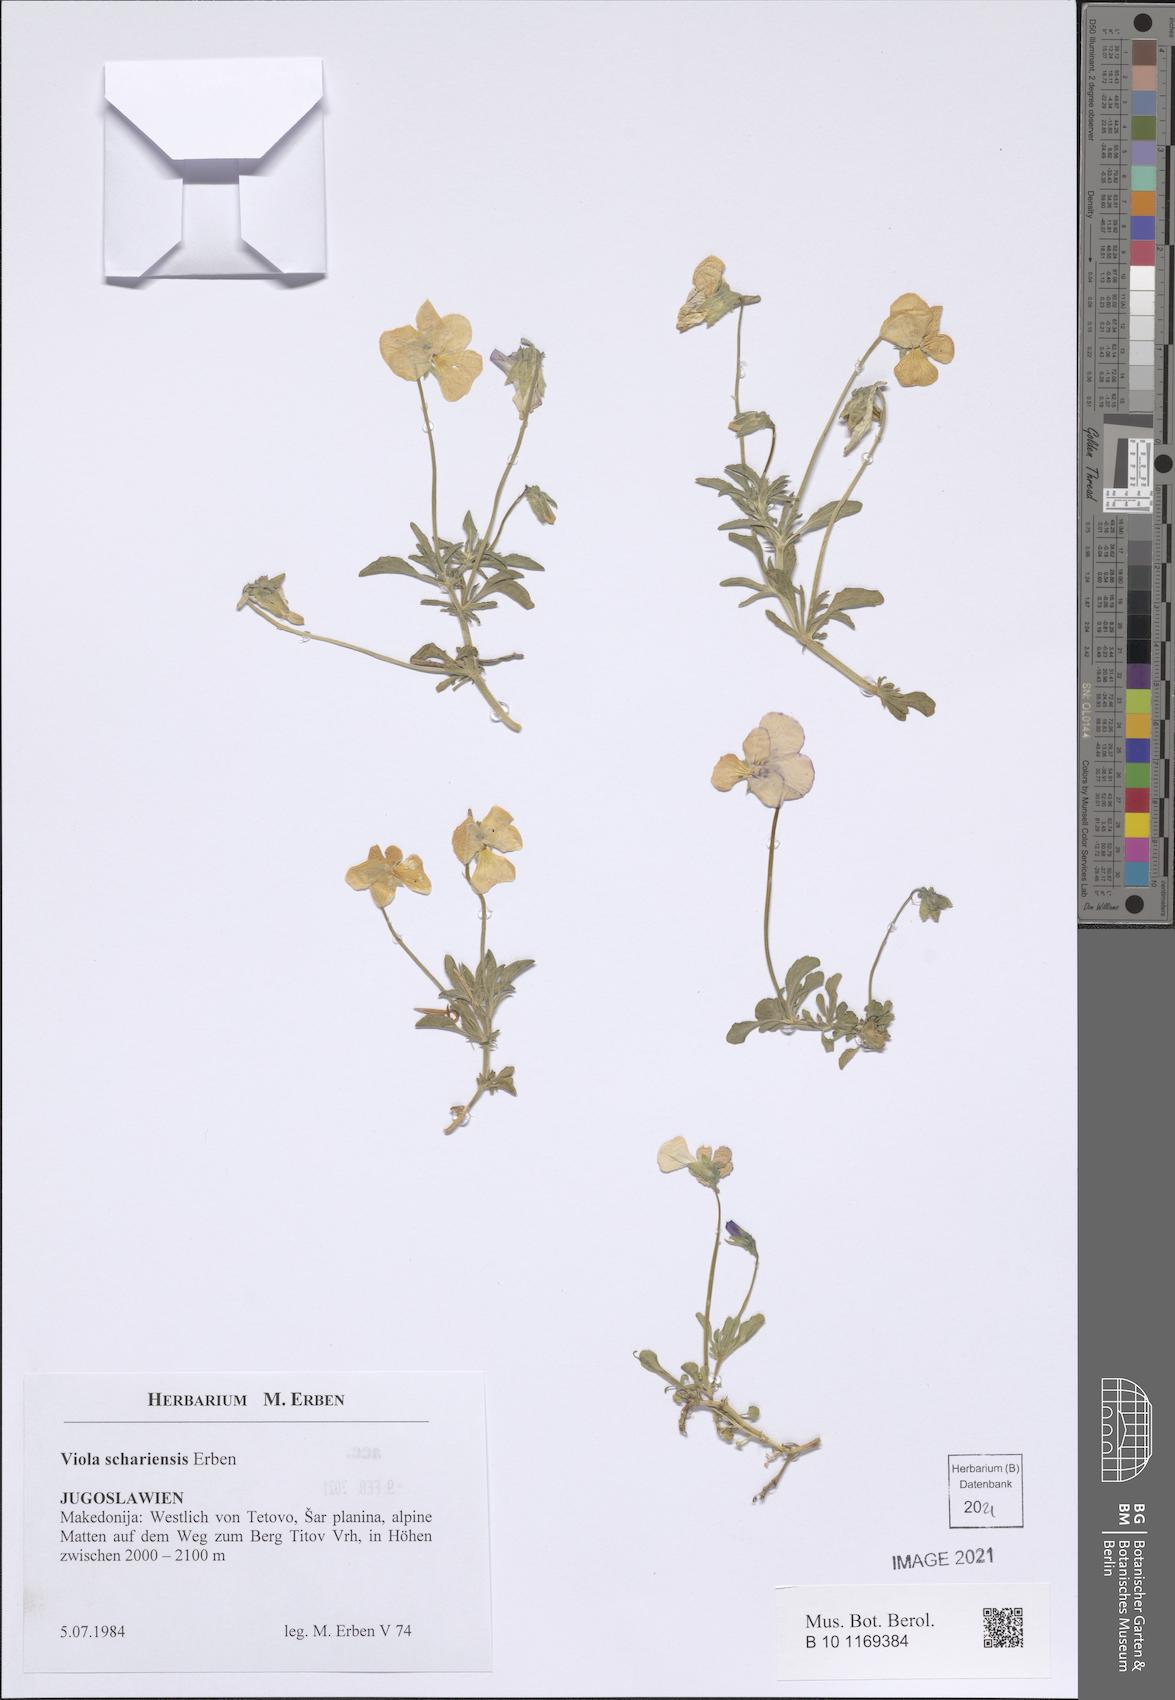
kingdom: Plantae
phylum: Tracheophyta
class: Magnoliopsida
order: Malpighiales
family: Violaceae
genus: Viola
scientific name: Viola schariensis
